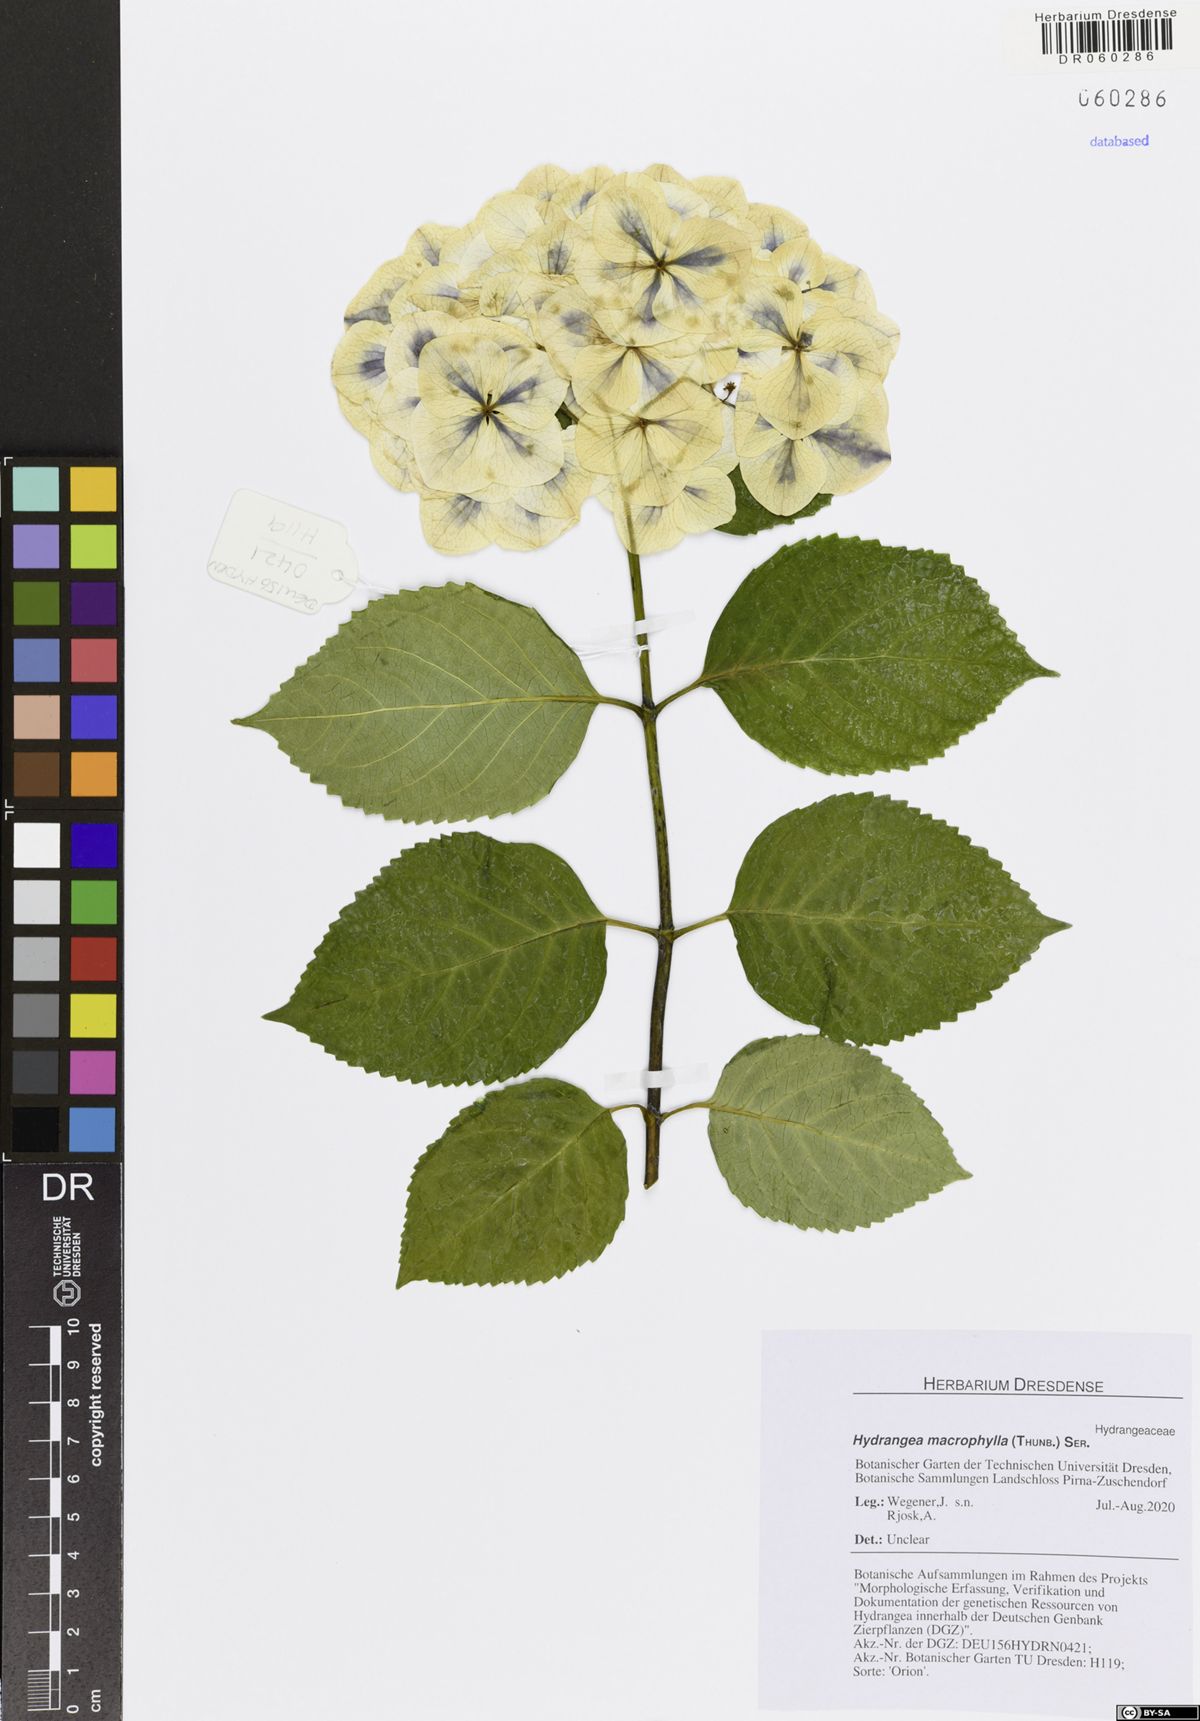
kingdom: Plantae
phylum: Tracheophyta
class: Magnoliopsida
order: Cornales
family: Hydrangeaceae
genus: Hydrangea
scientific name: Hydrangea macrophylla
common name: Hydrangea
